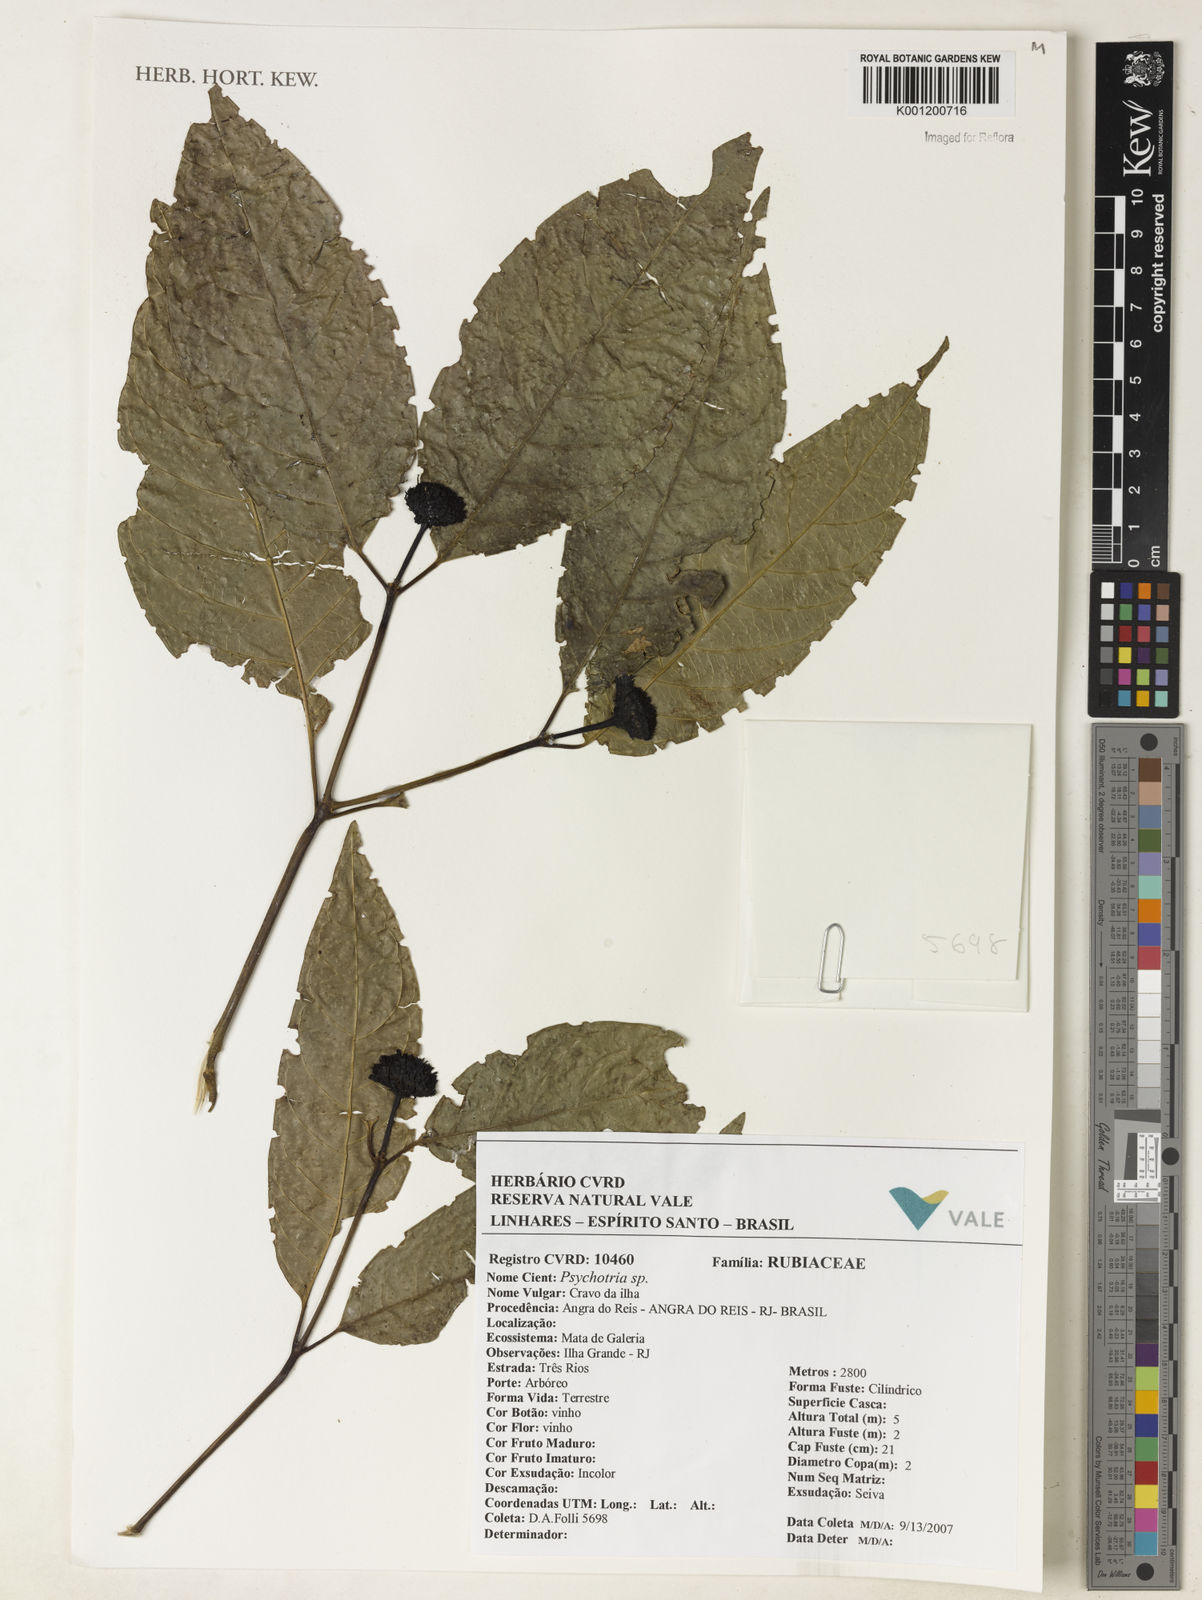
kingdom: Plantae
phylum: Tracheophyta
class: Magnoliopsida
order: Gentianales
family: Rubiaceae
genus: Psychotria
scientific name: Psychotria
